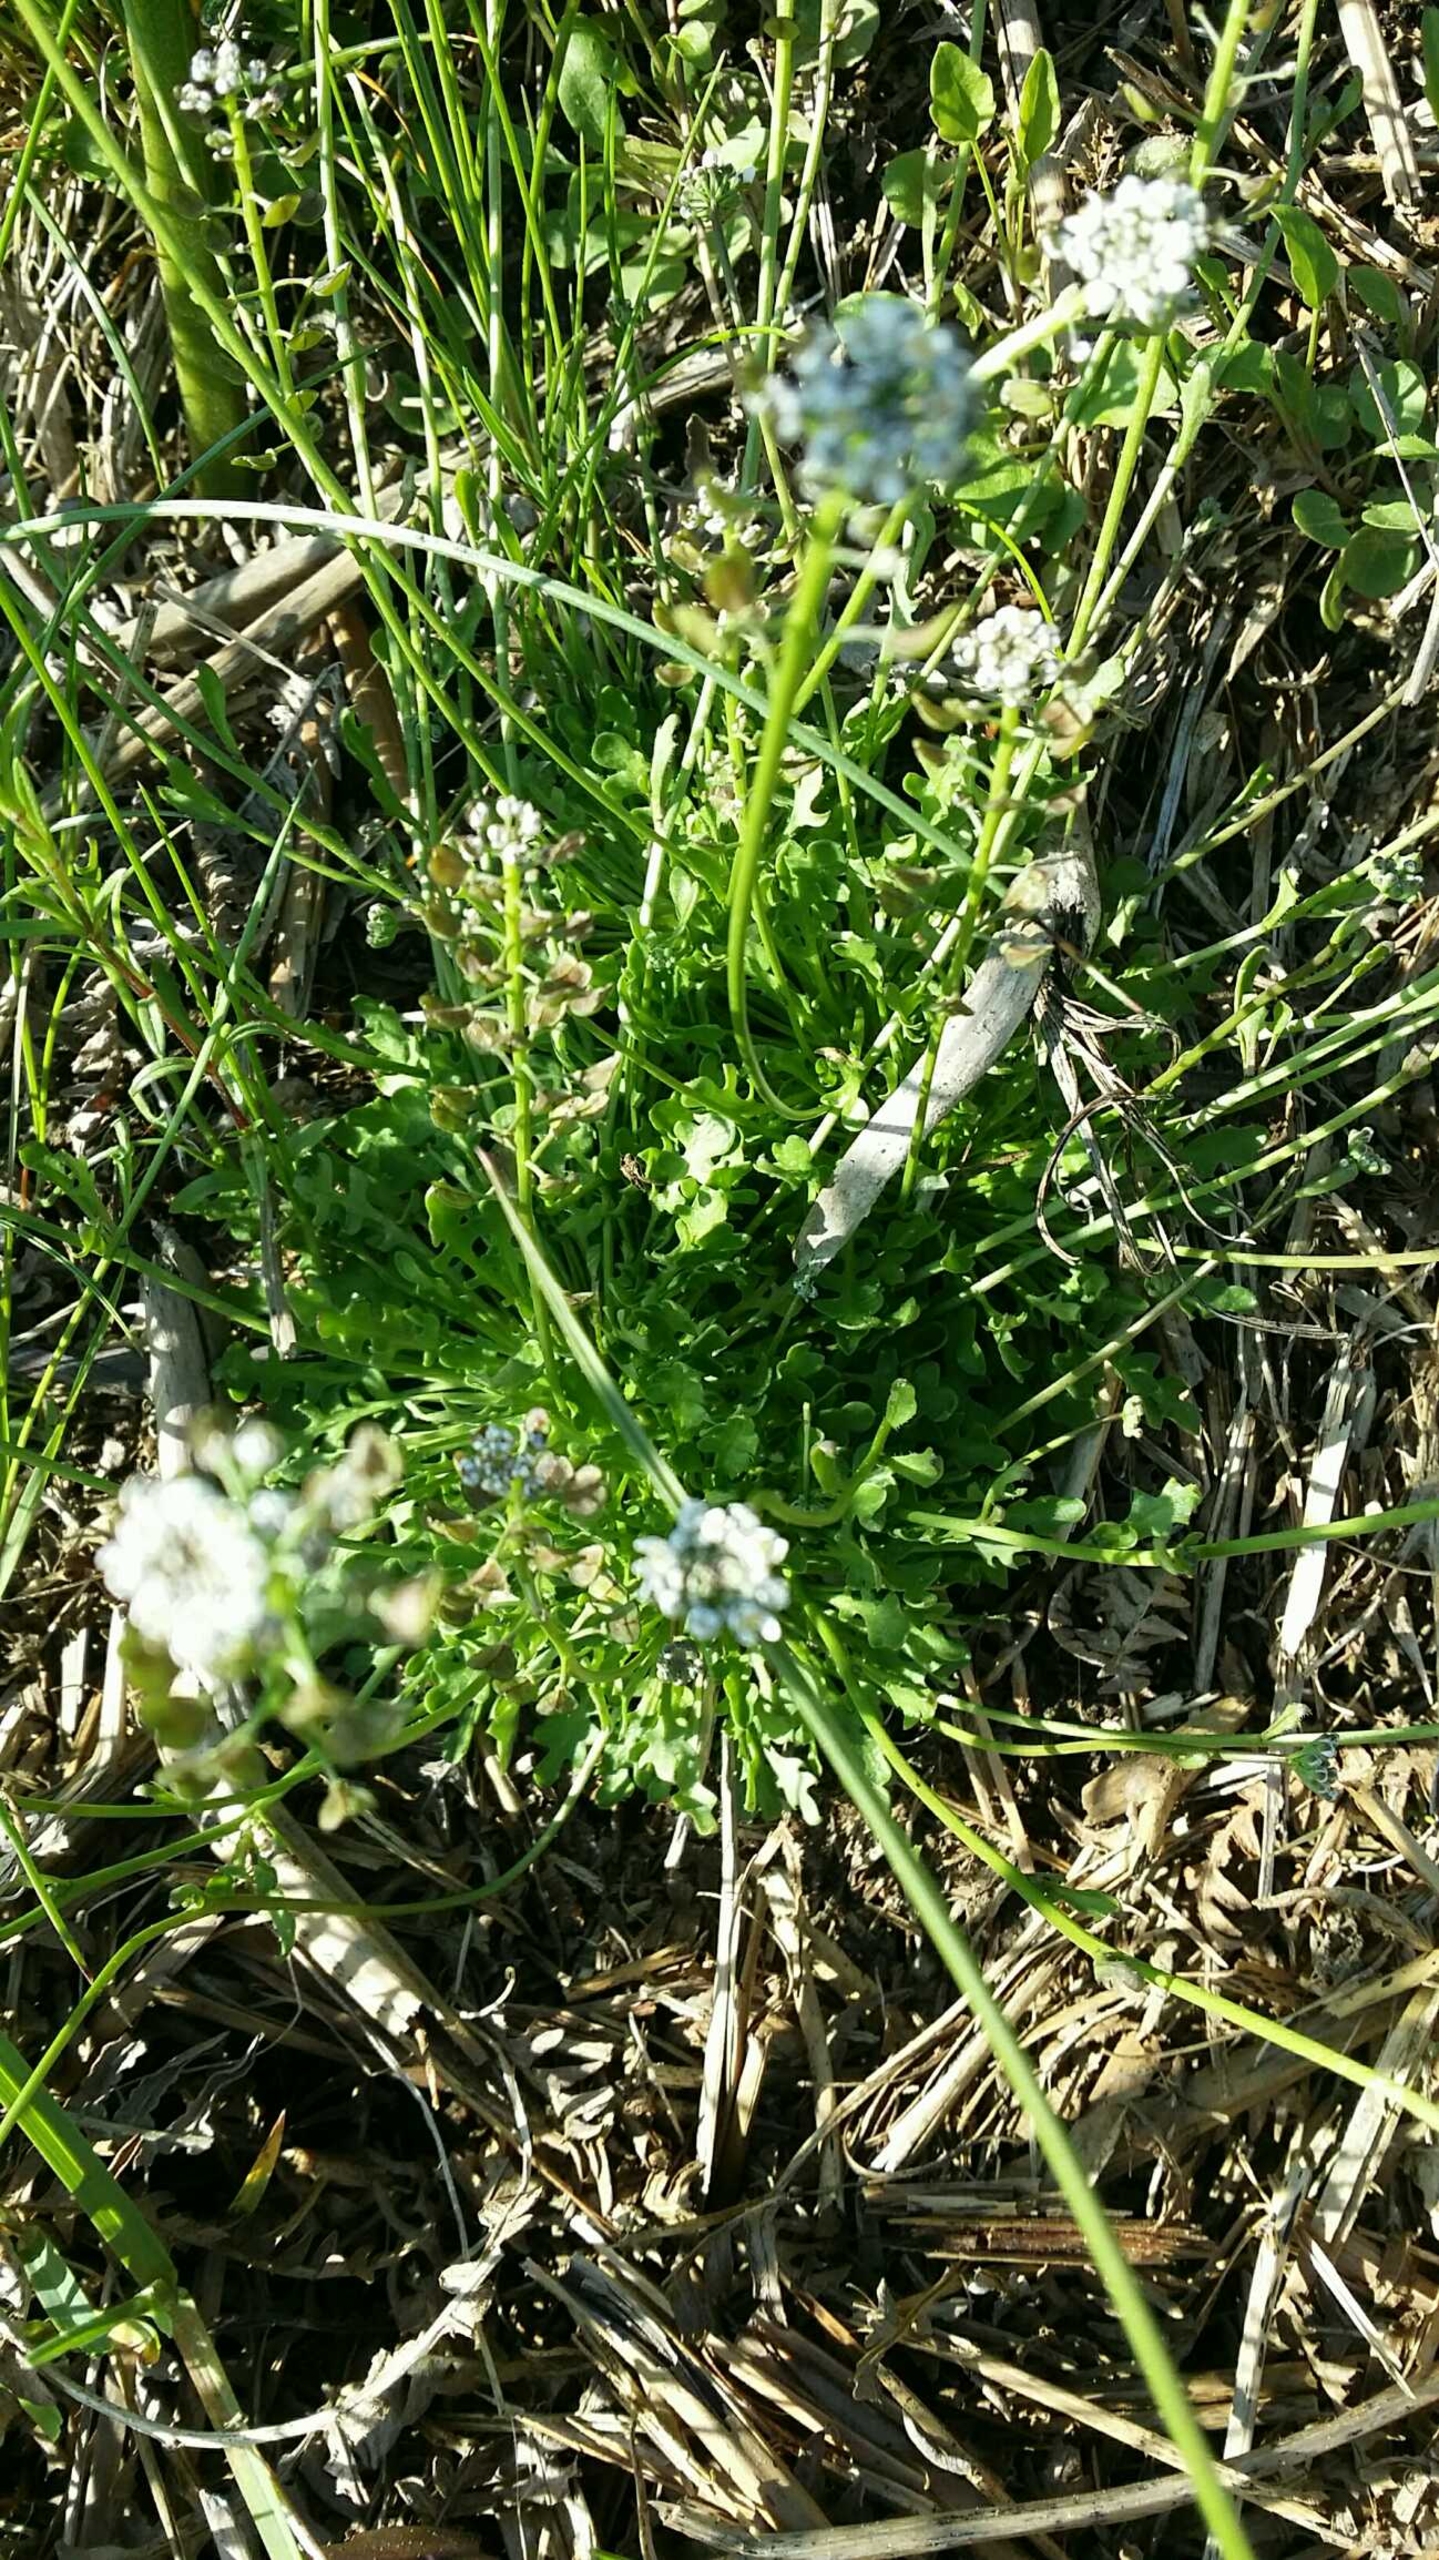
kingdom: Plantae
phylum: Tracheophyta
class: Magnoliopsida
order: Brassicales
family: Brassicaceae
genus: Teesdalia
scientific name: Teesdalia nudicaulis
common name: Flipkrave
